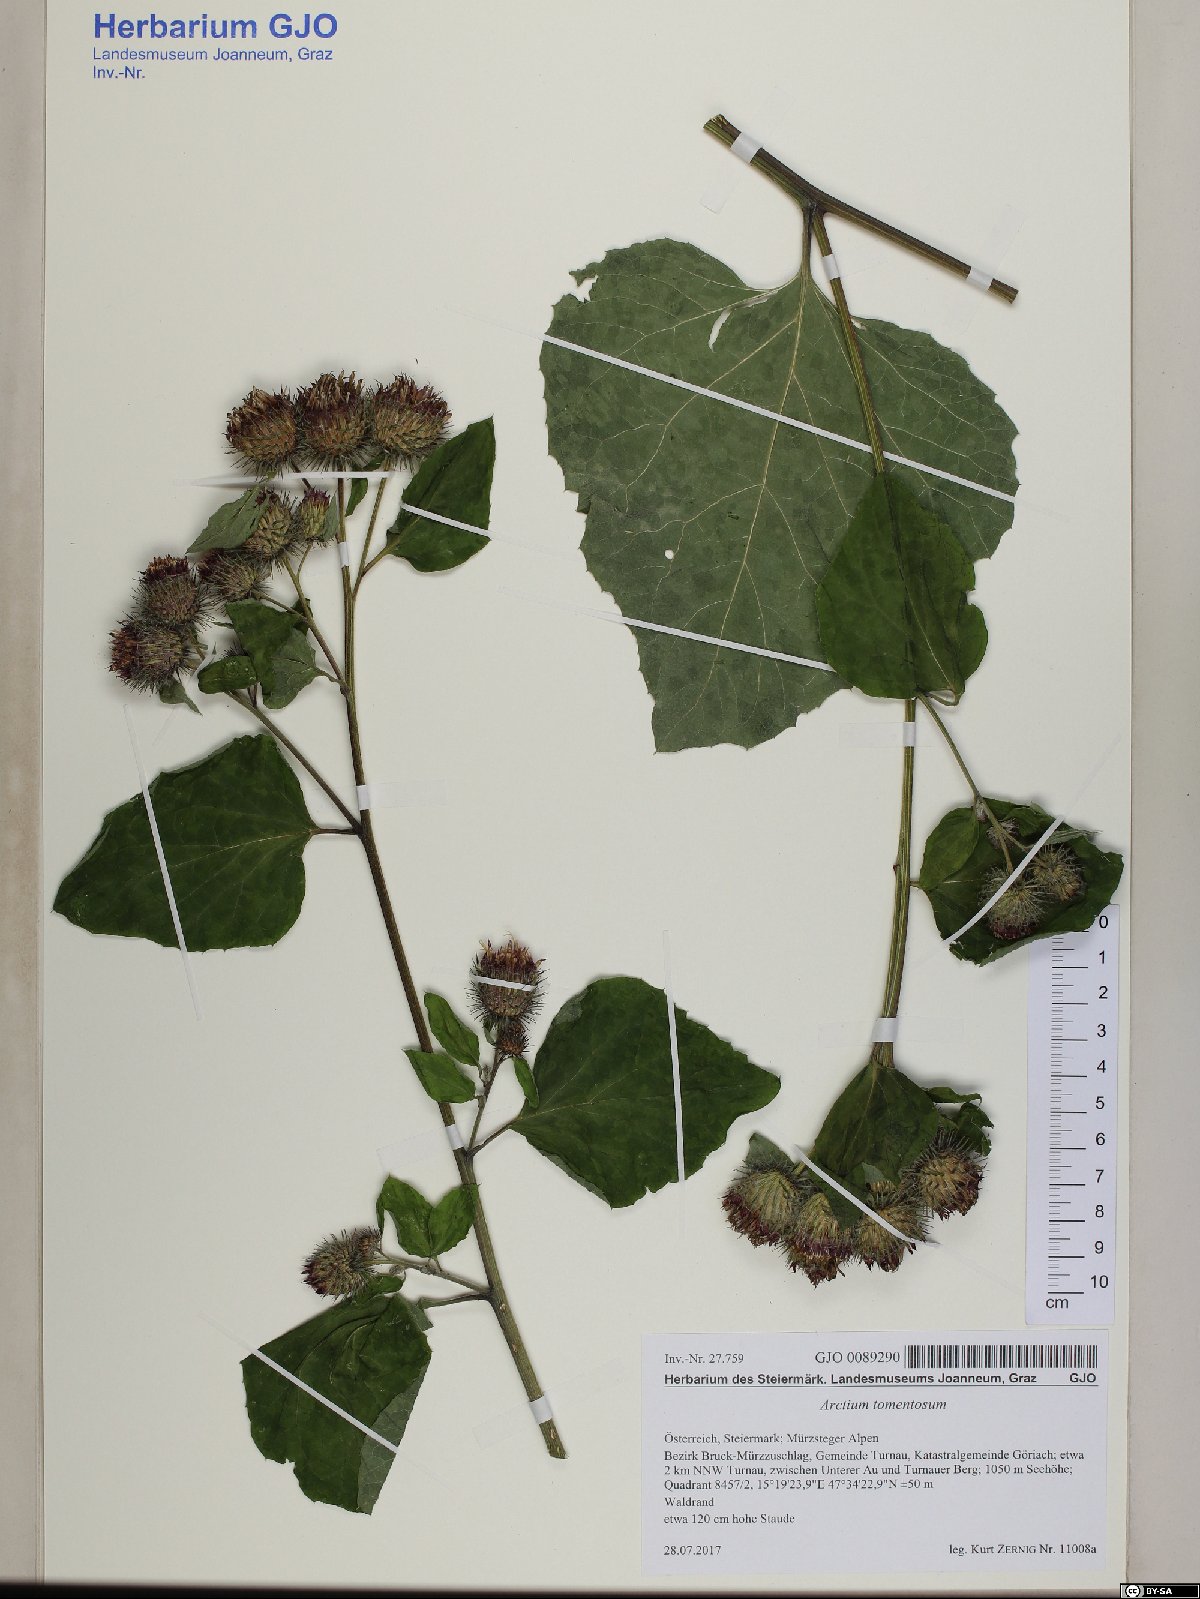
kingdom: Plantae
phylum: Tracheophyta
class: Magnoliopsida
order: Asterales
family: Asteraceae
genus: Arctium
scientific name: Arctium tomentosum
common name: Woolly burdock
